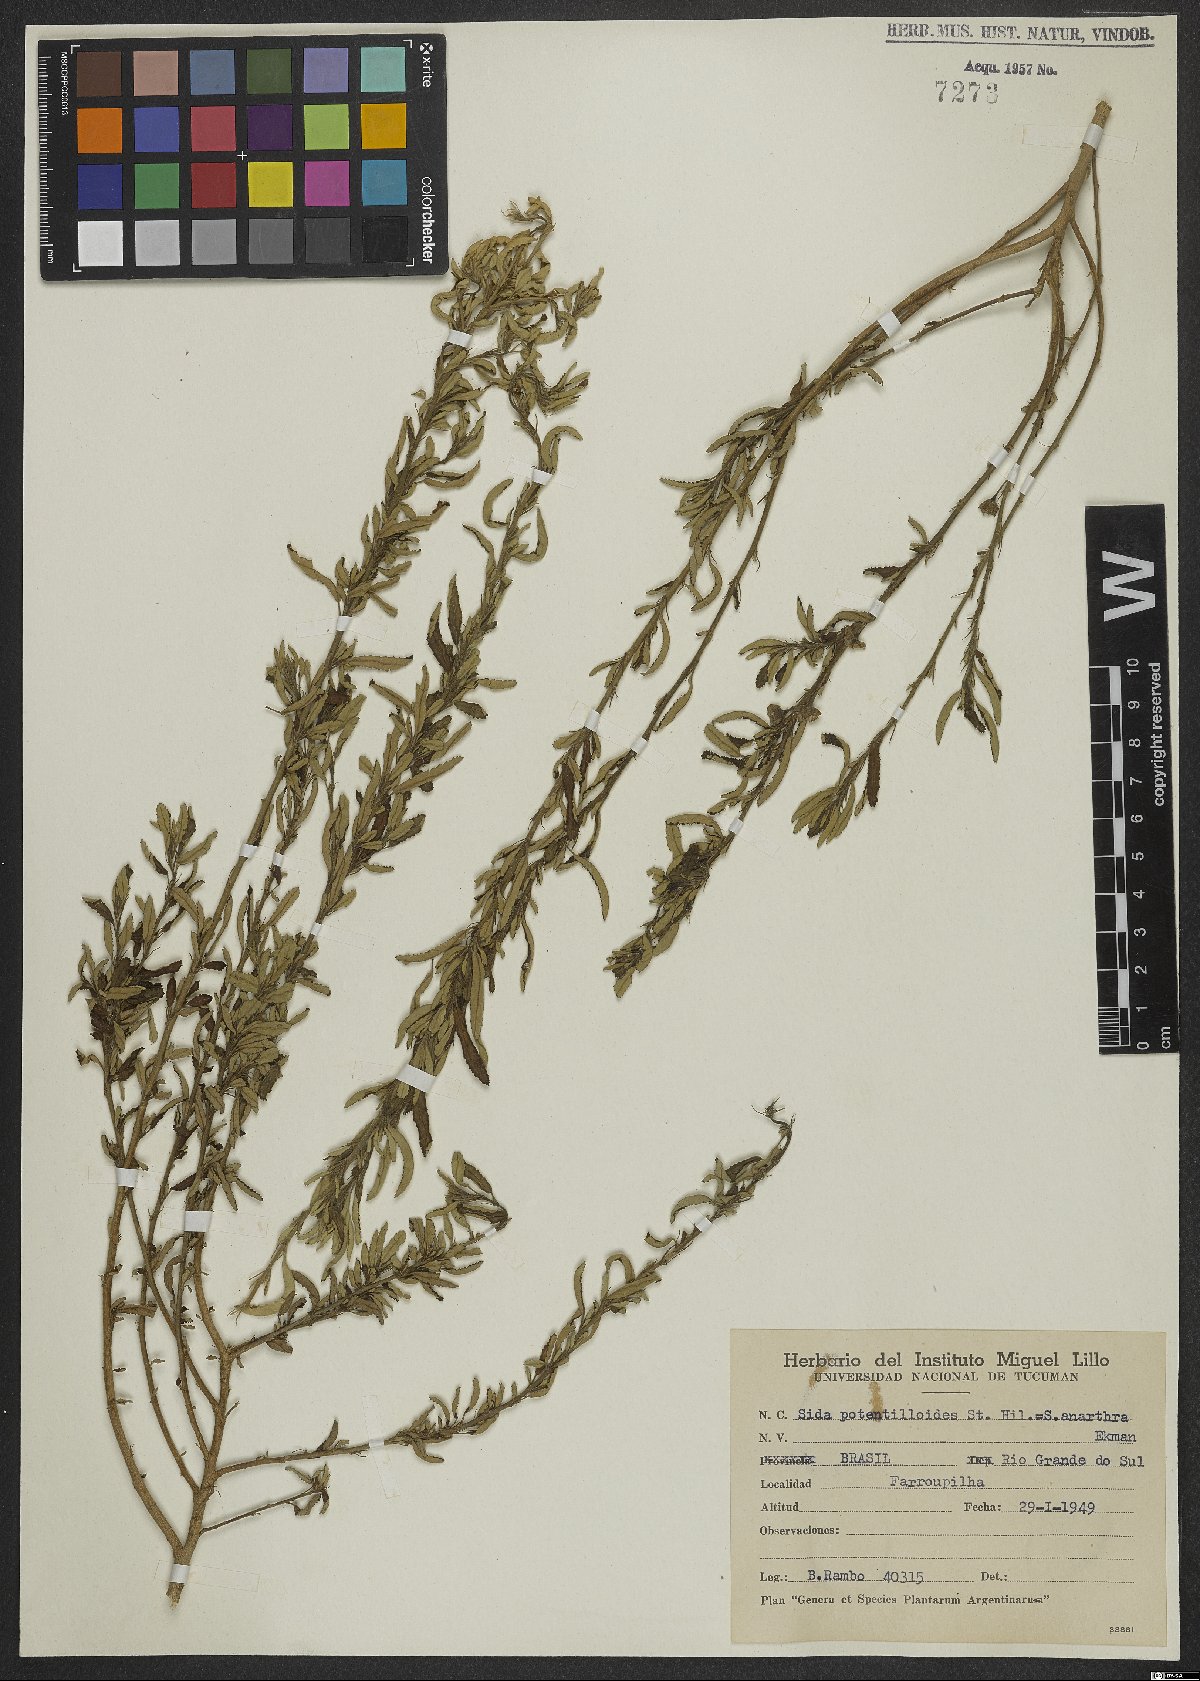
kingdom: Plantae
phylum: Tracheophyta
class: Magnoliopsida
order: Malvales
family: Malvaceae
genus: Sida
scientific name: Sida potentilloides
